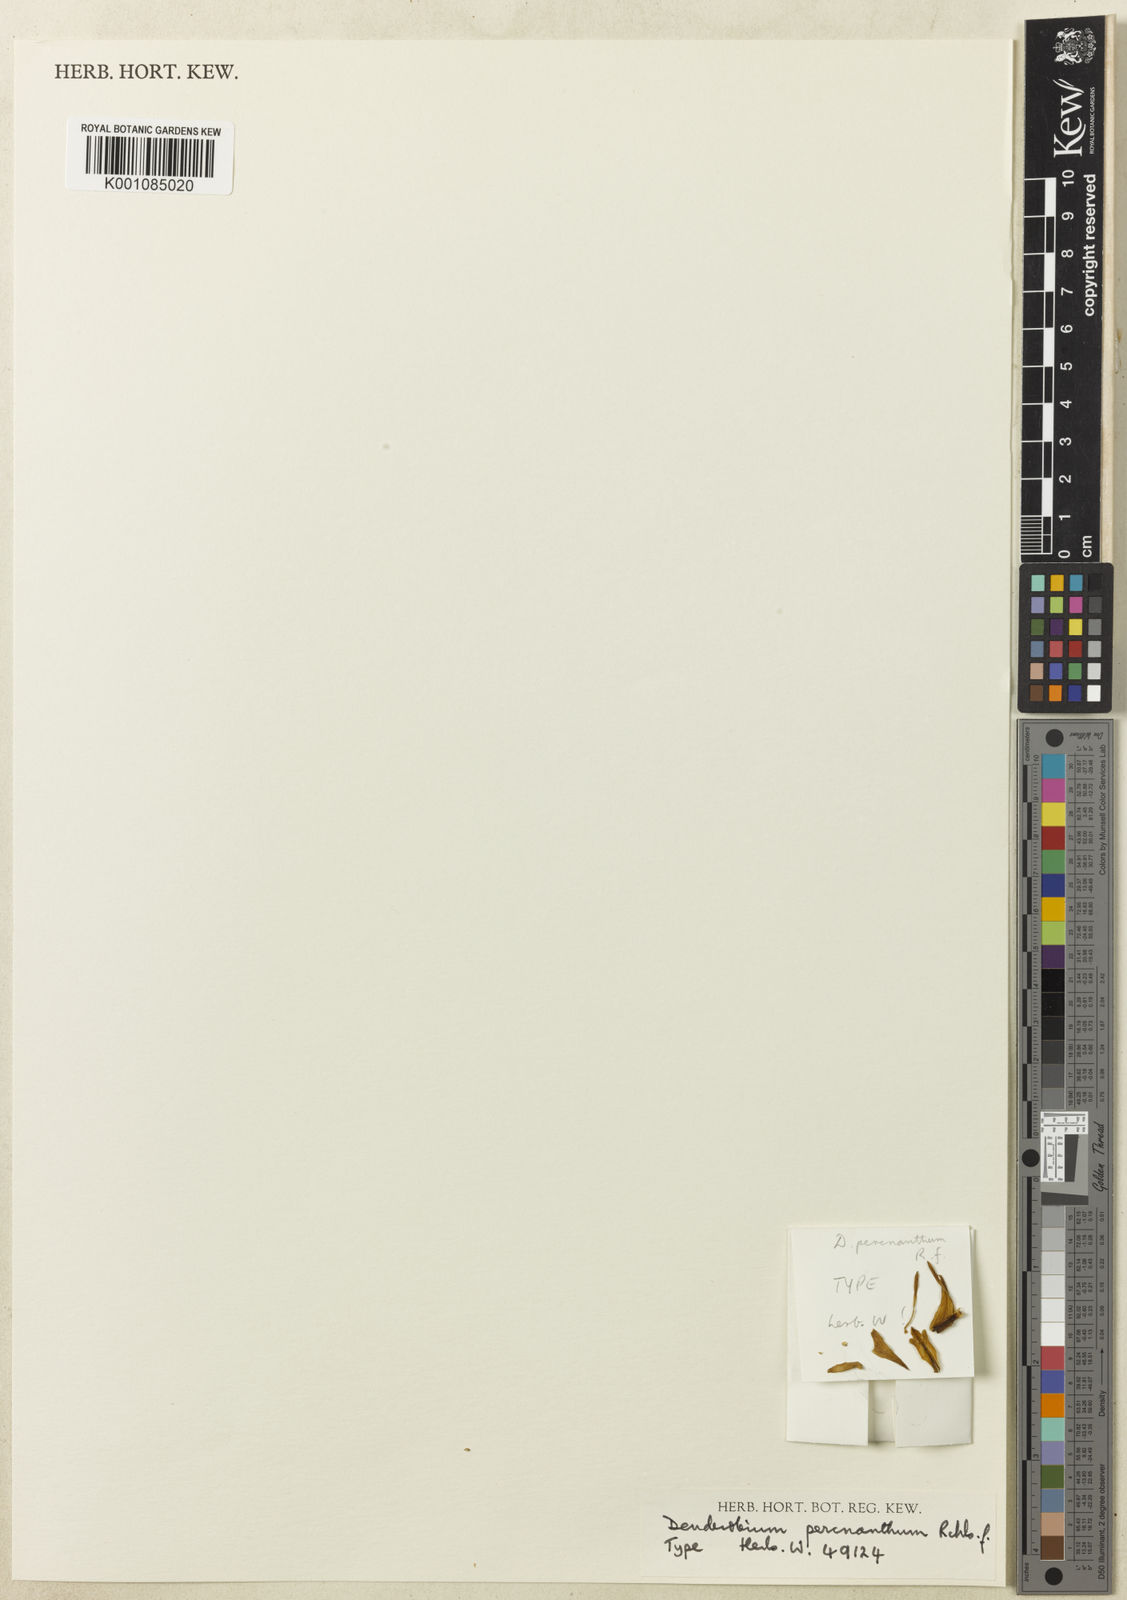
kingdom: Plantae
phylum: Tracheophyta
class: Liliopsida
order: Asparagales
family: Orchidaceae
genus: Dendrobium
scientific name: Dendrobium percnanthum
